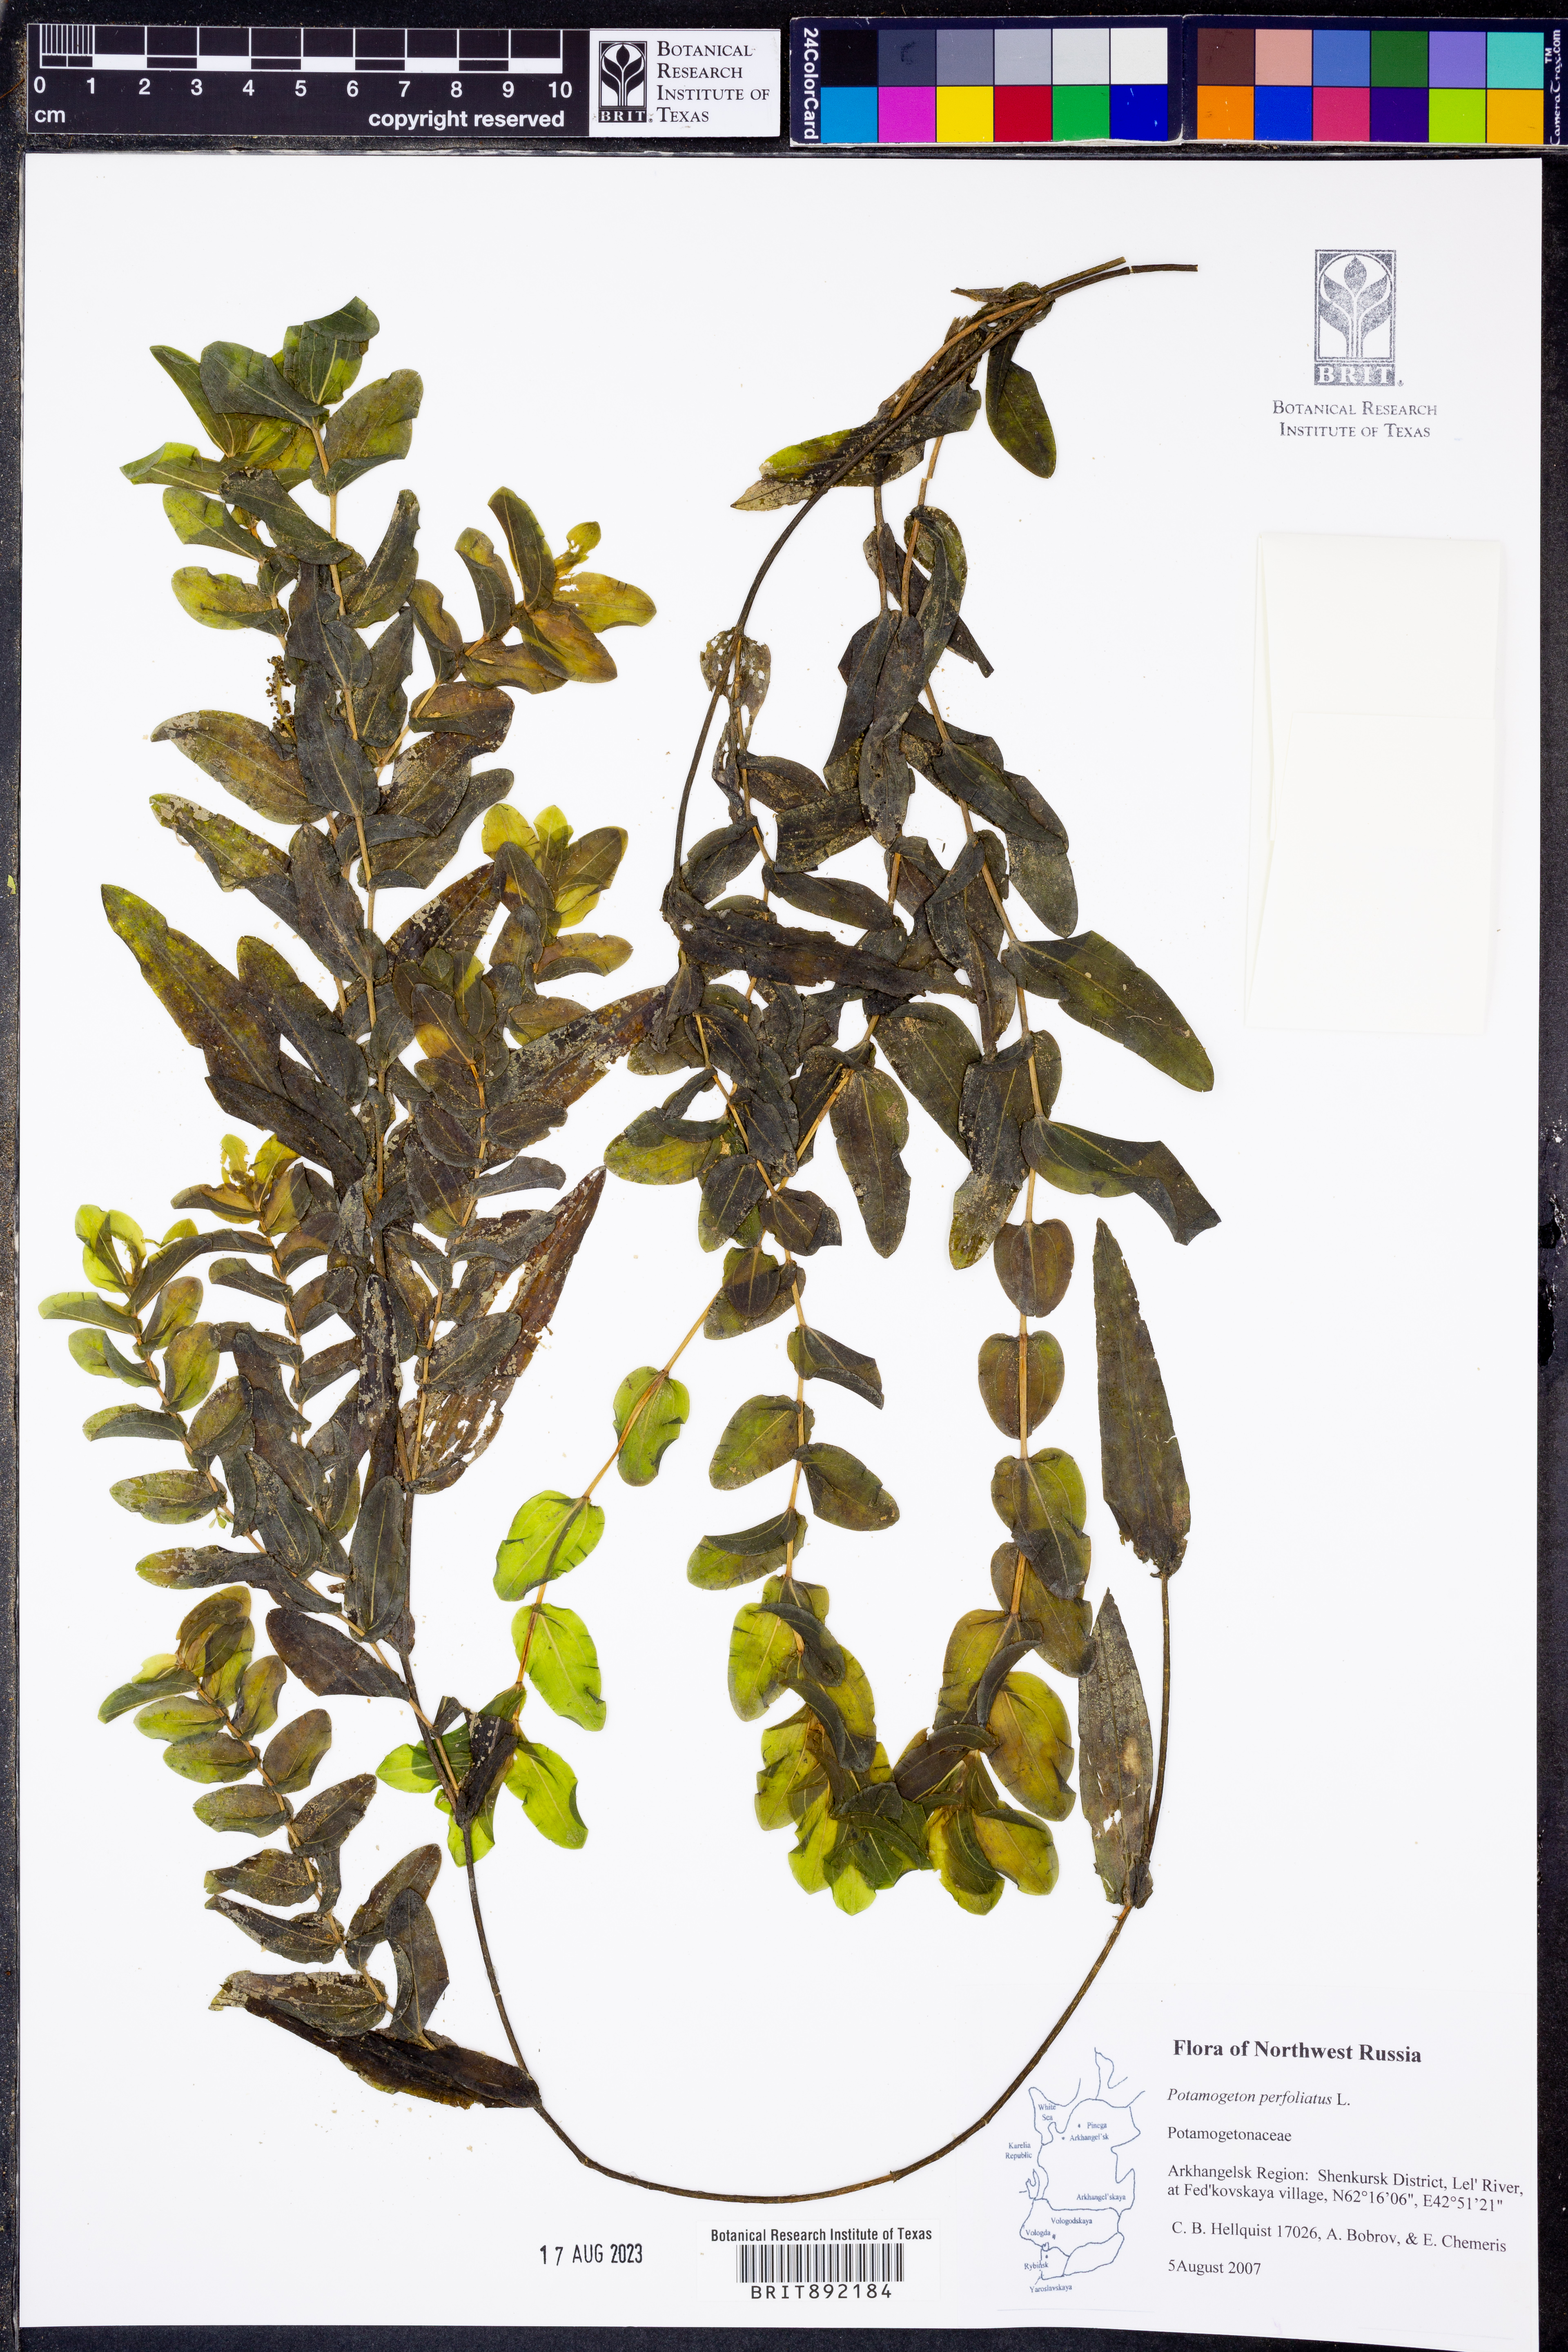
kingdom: Plantae
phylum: Tracheophyta
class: Liliopsida
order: Alismatales
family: Potamogetonaceae
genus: Potamogeton
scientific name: Potamogeton perfoliatus
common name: Perfoliate pondweed
